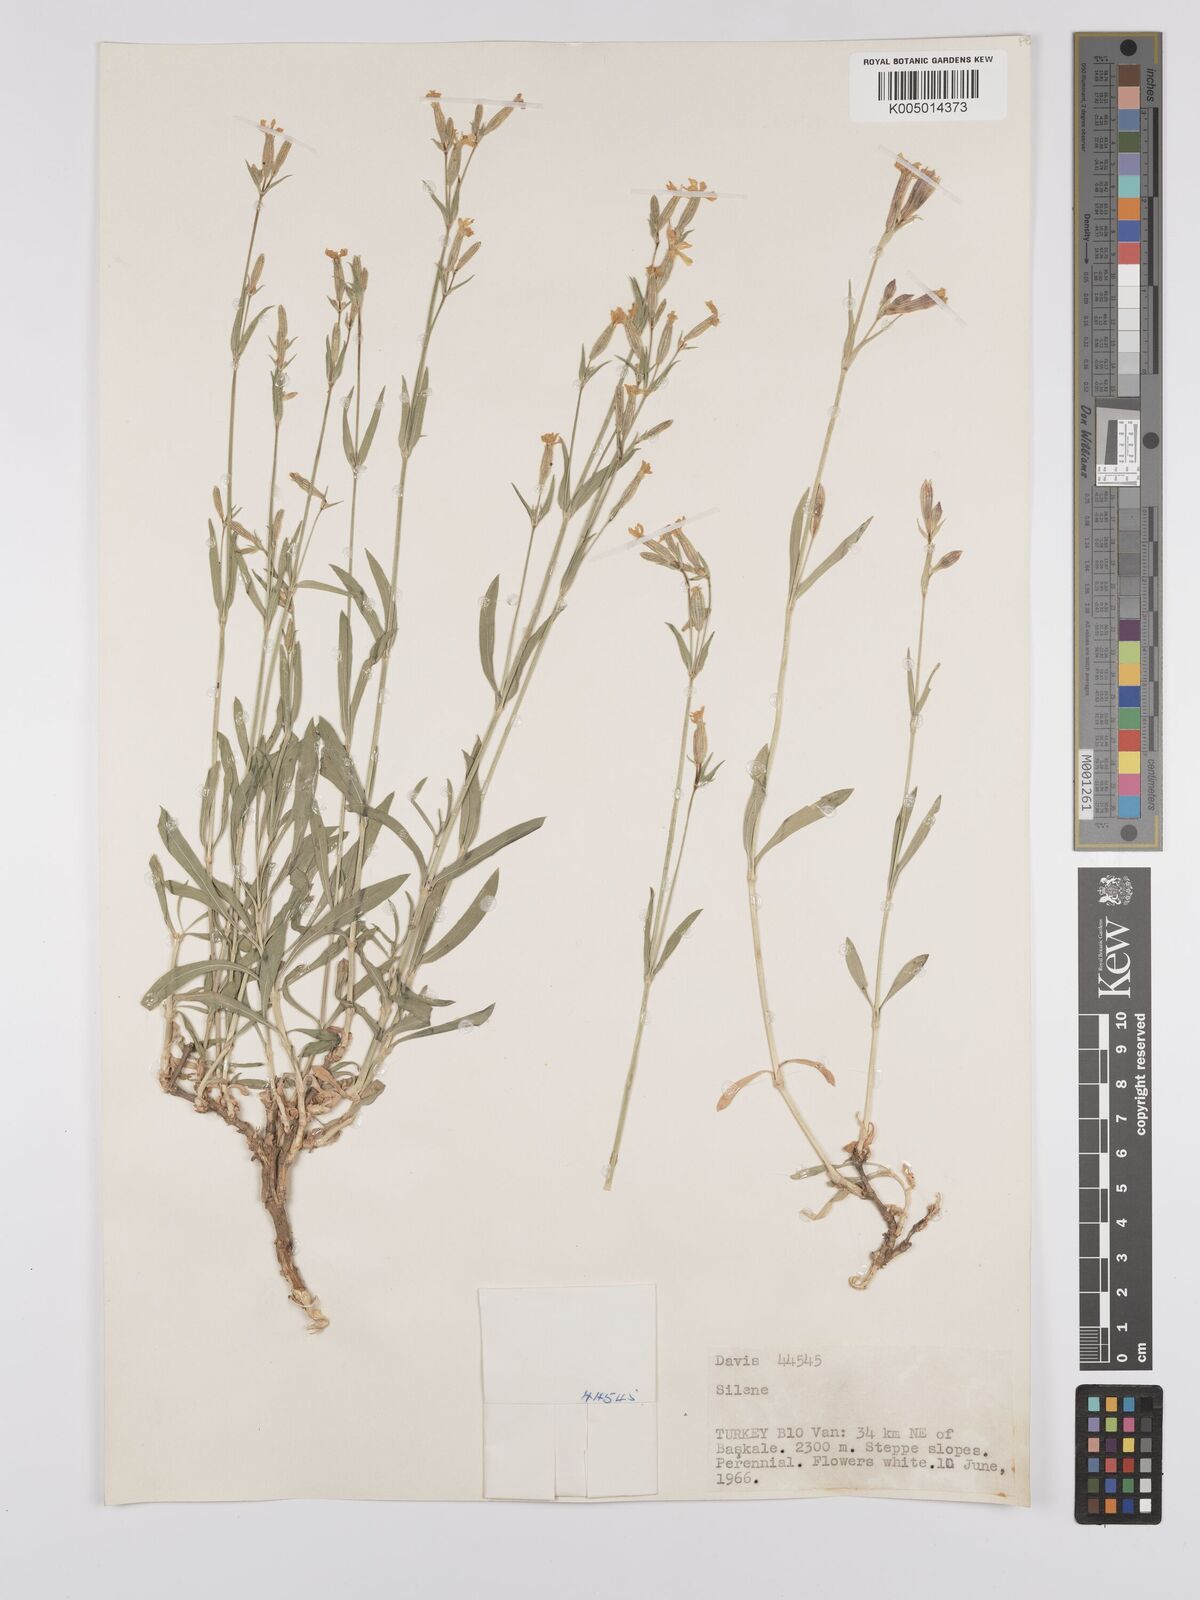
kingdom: Plantae
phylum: Tracheophyta
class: Magnoliopsida
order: Caryophyllales
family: Caryophyllaceae
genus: Silene
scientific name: Silene
